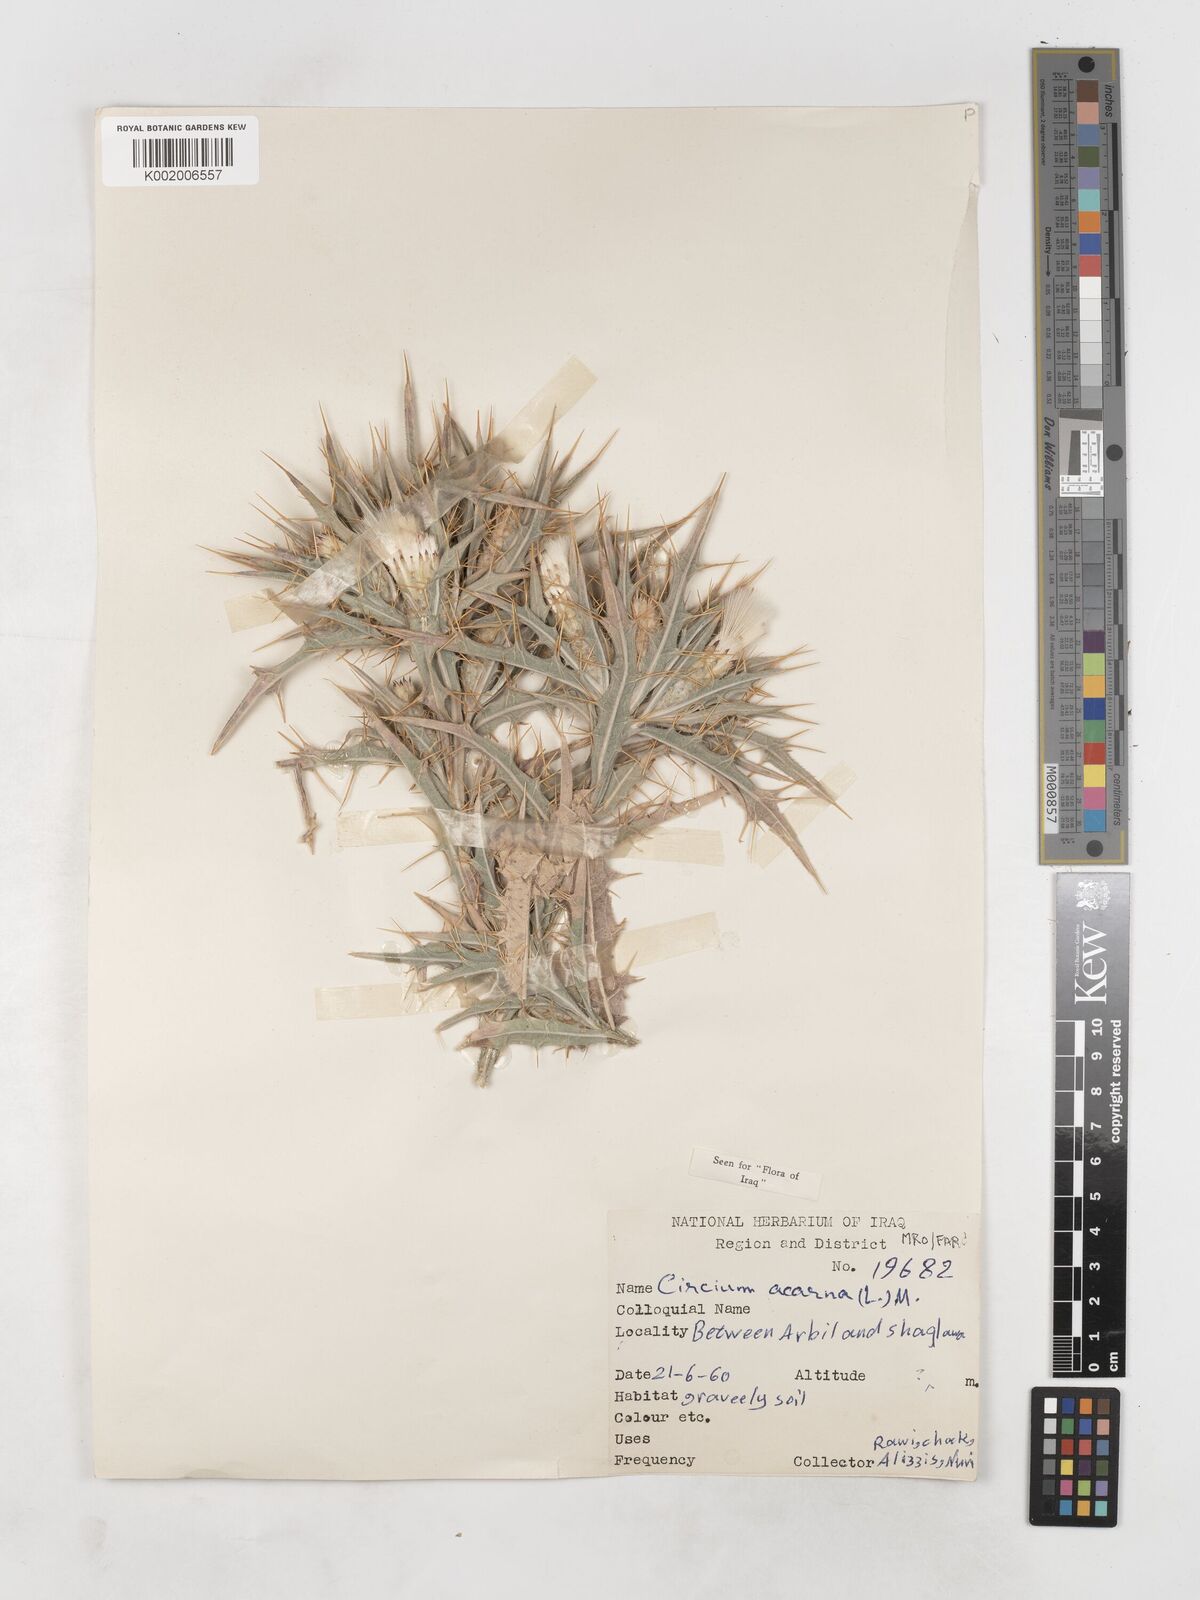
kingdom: Plantae
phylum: Tracheophyta
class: Magnoliopsida
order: Asterales
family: Asteraceae
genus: Picnomon
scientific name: Picnomon acarna
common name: Soldier thistle
